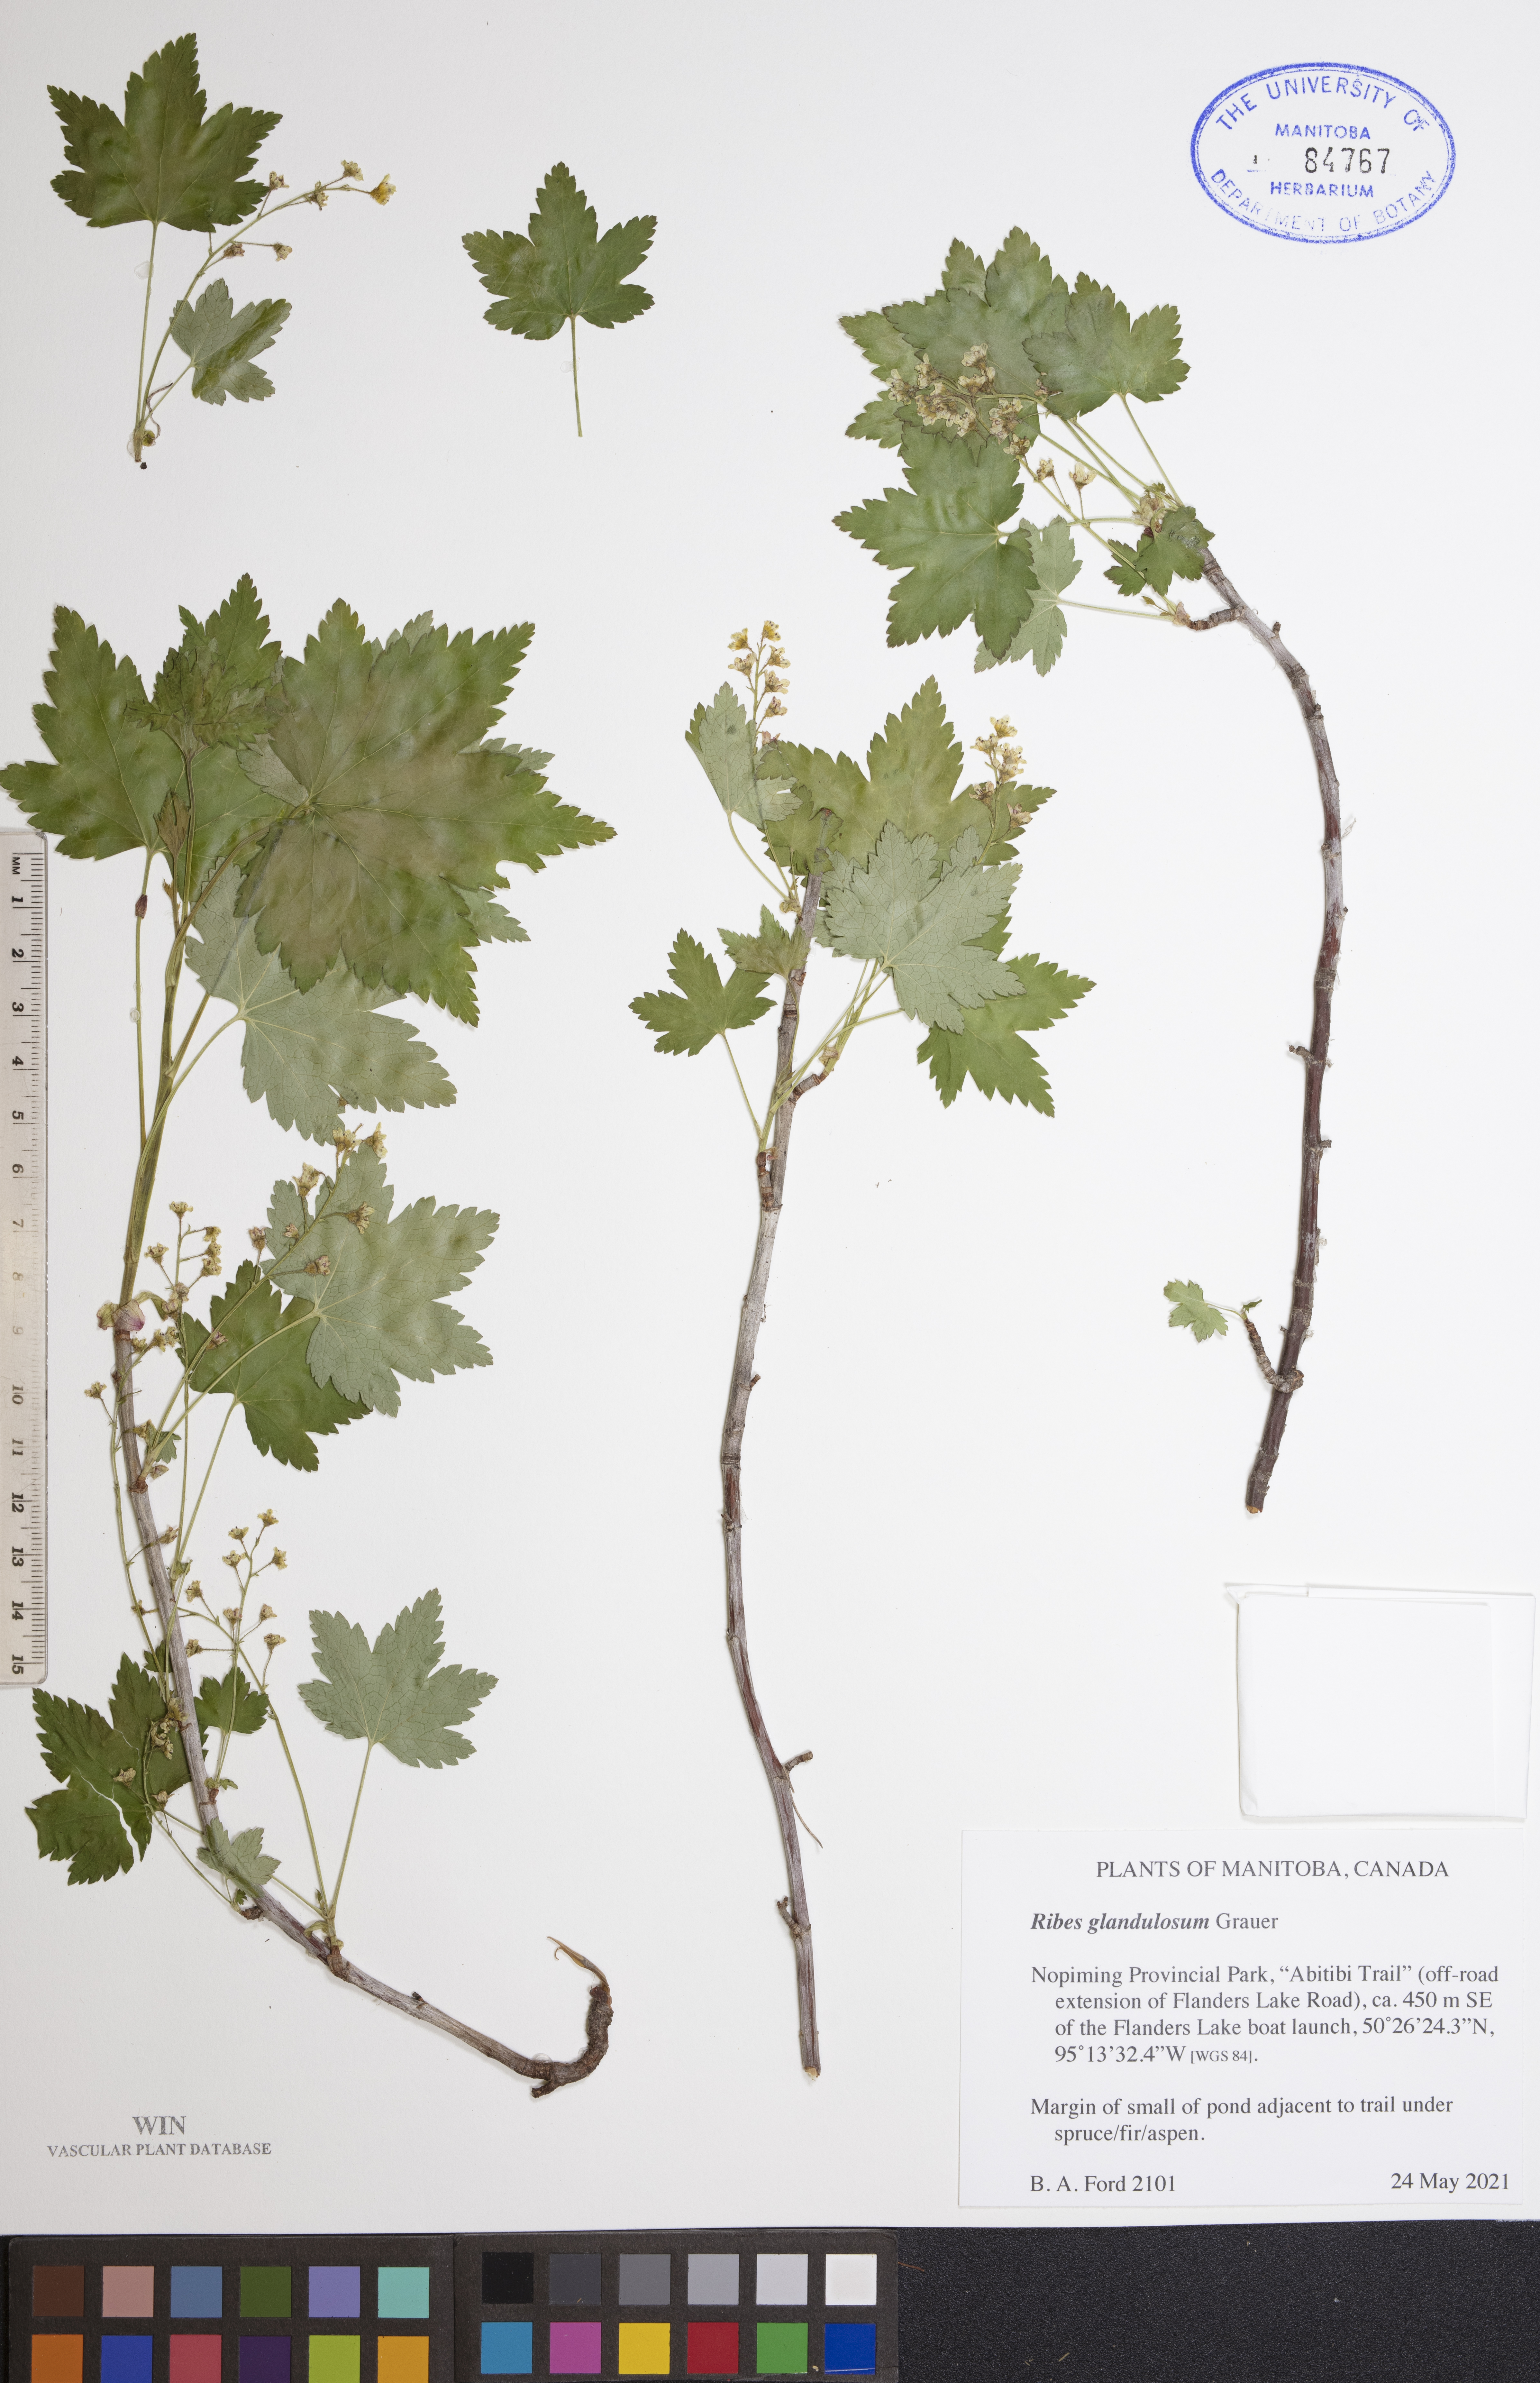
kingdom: Plantae
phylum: Tracheophyta
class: Magnoliopsida
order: Saxifragales
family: Grossulariaceae
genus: Ribes
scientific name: Ribes glandulosum
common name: Skunk currant
